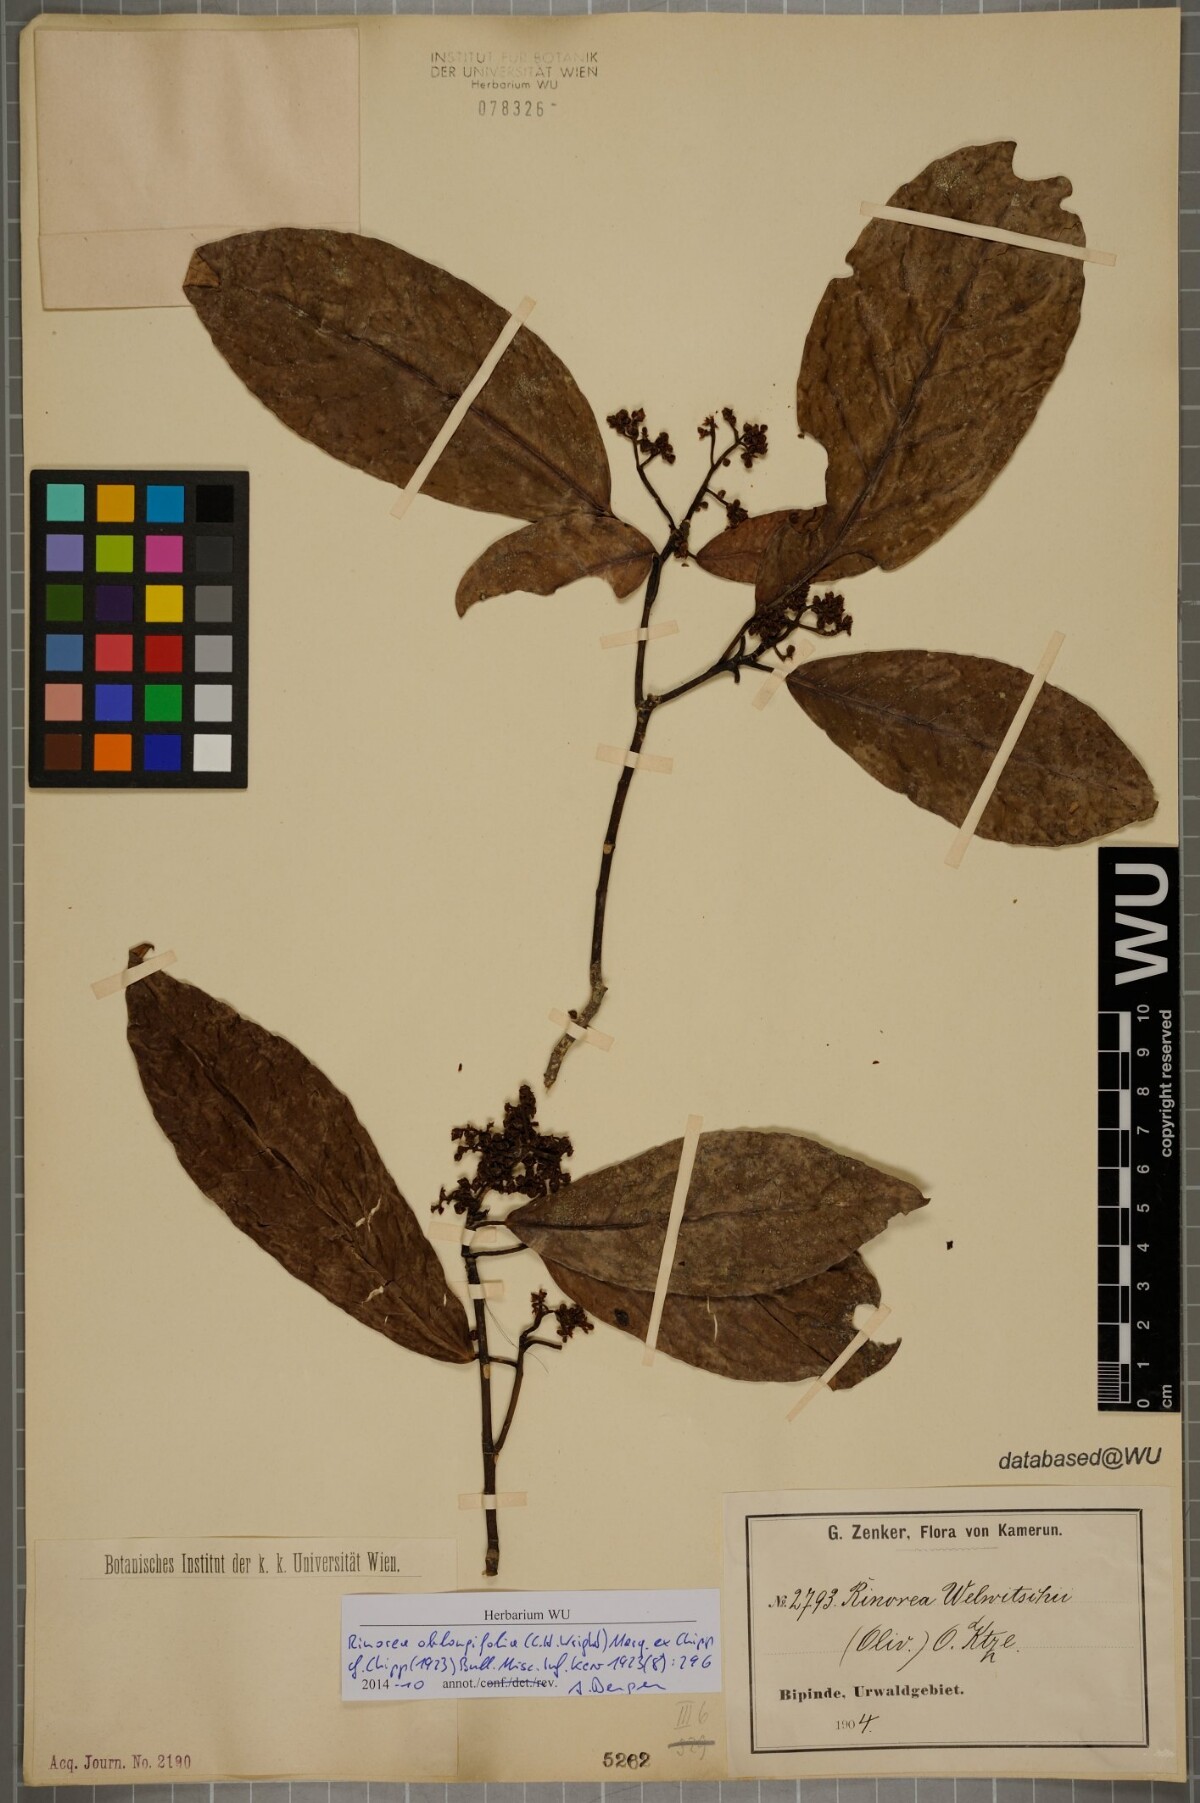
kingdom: Plantae
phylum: Tracheophyta
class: Magnoliopsida
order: Apiales
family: Pittosporaceae
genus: Marianthus
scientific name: Marianthus coeruleopunctatus
